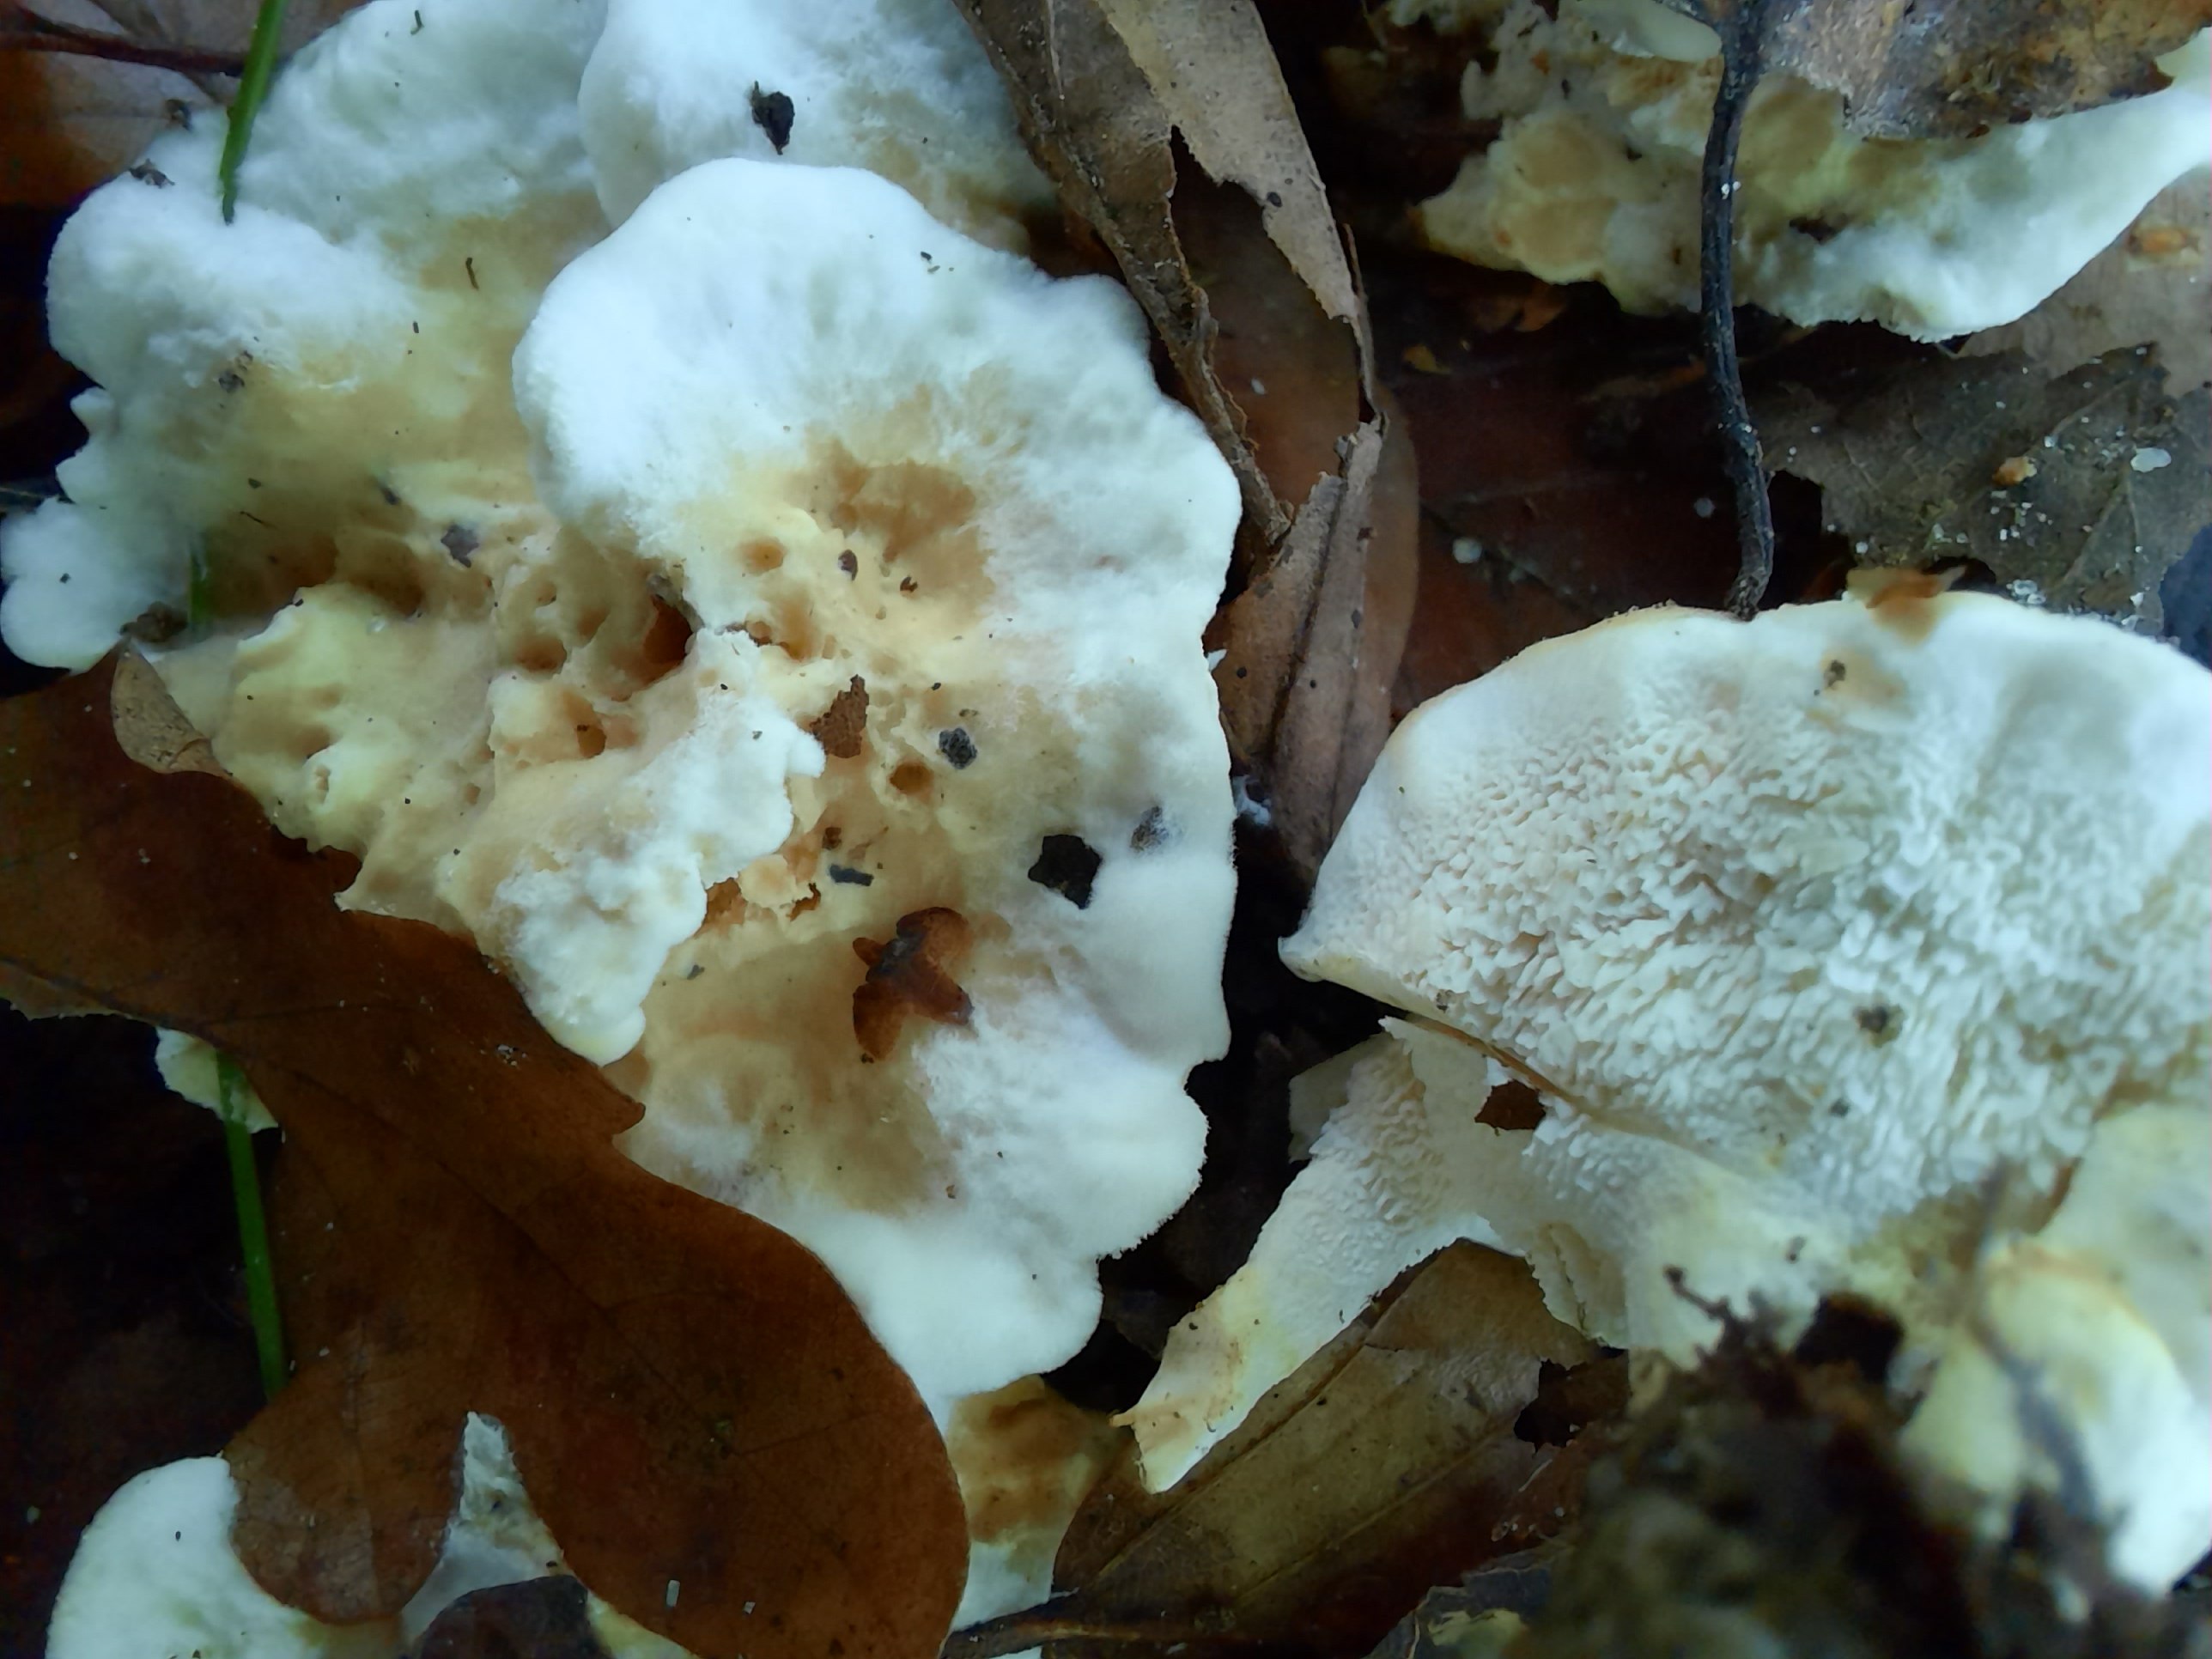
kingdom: Fungi
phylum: Basidiomycota
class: Agaricomycetes
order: Cantharellales
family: Hydnaceae
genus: Sistotrema
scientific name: Sistotrema confluens
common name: stilket kroneskorpe
